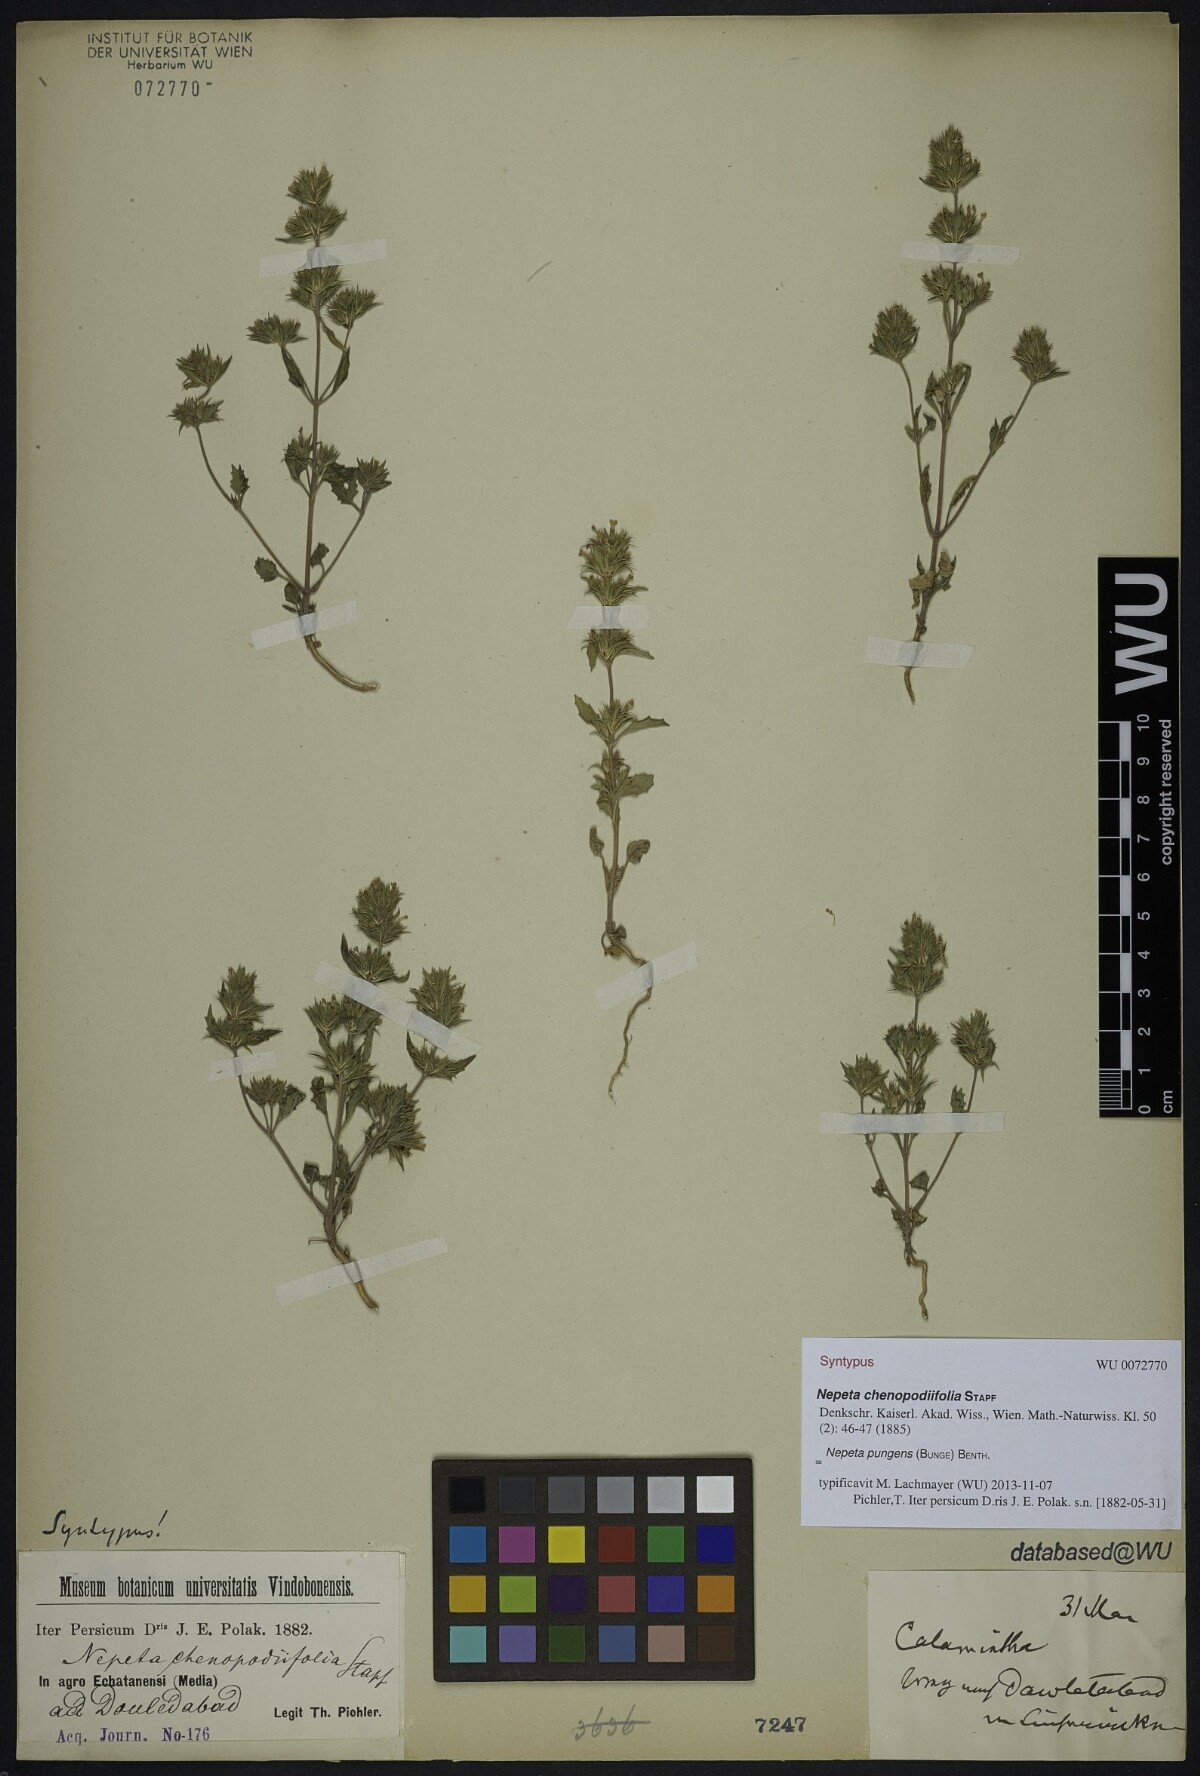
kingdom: Plantae
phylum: Tracheophyta
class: Magnoliopsida
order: Lamiales
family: Lamiaceae
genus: Nepeta
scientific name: Nepeta pungens
